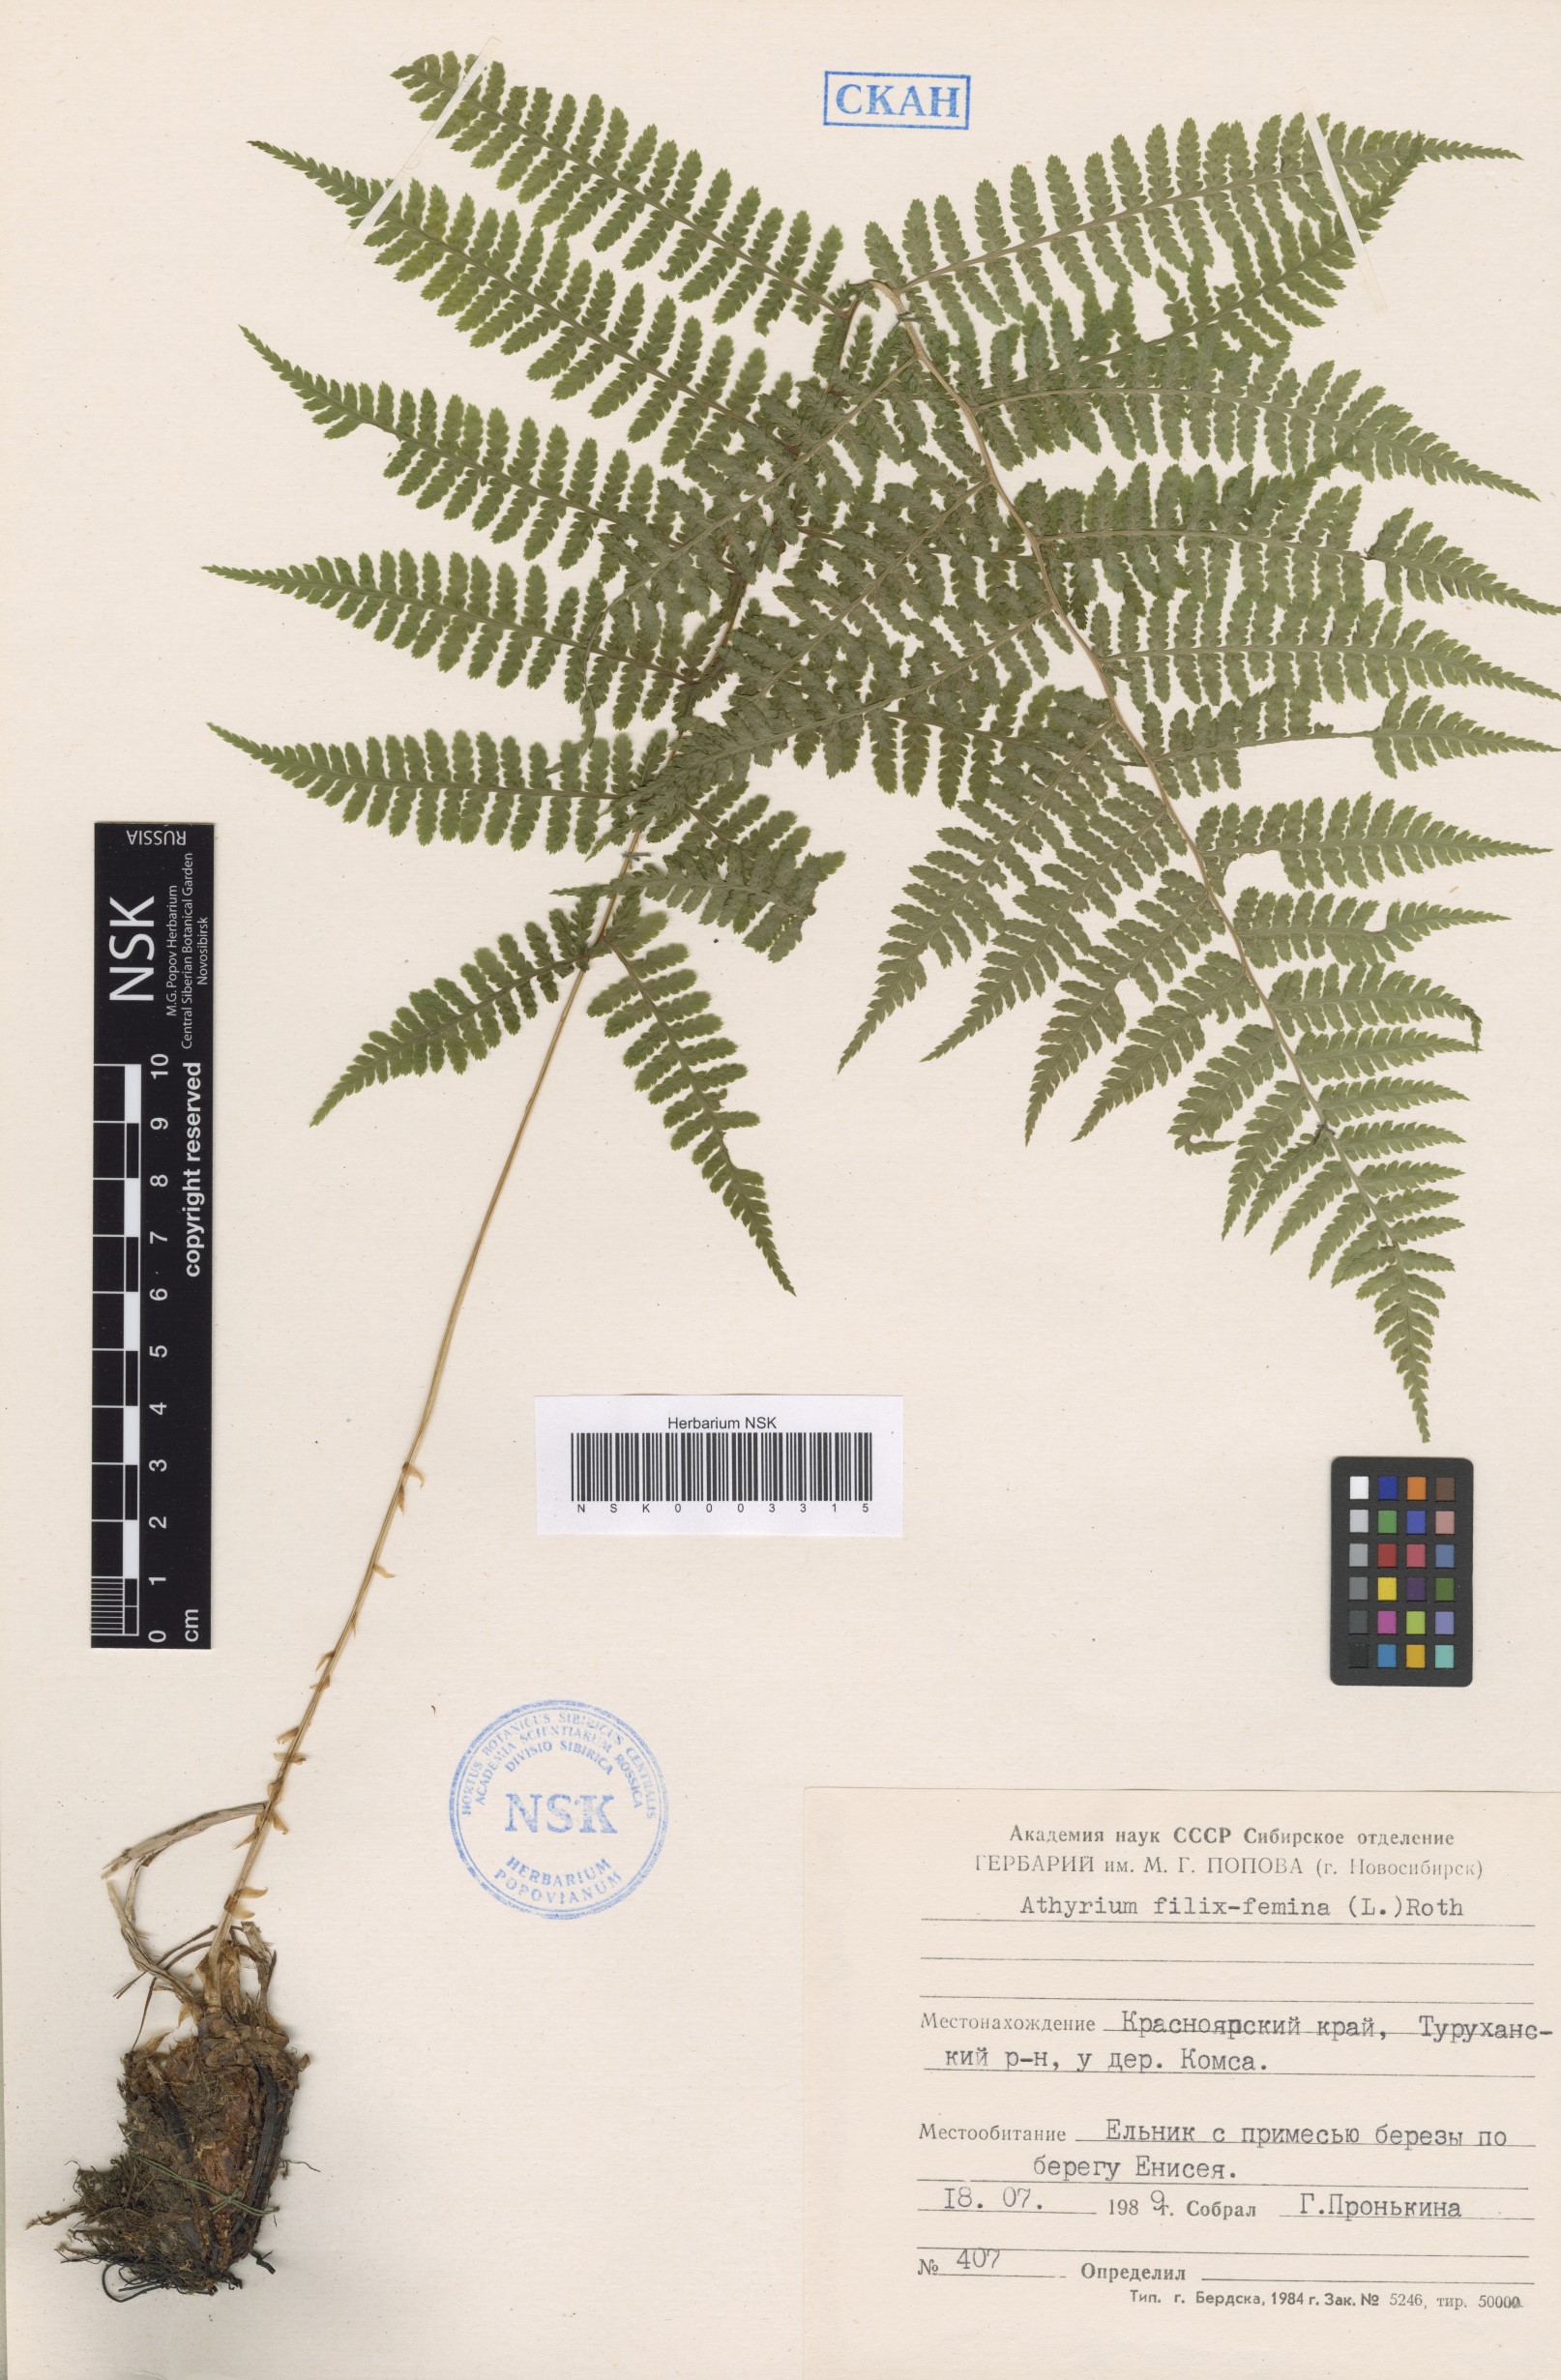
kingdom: Plantae
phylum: Tracheophyta
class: Polypodiopsida
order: Polypodiales
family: Athyriaceae
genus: Athyrium
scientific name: Athyrium filix-femina
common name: Lady fern
